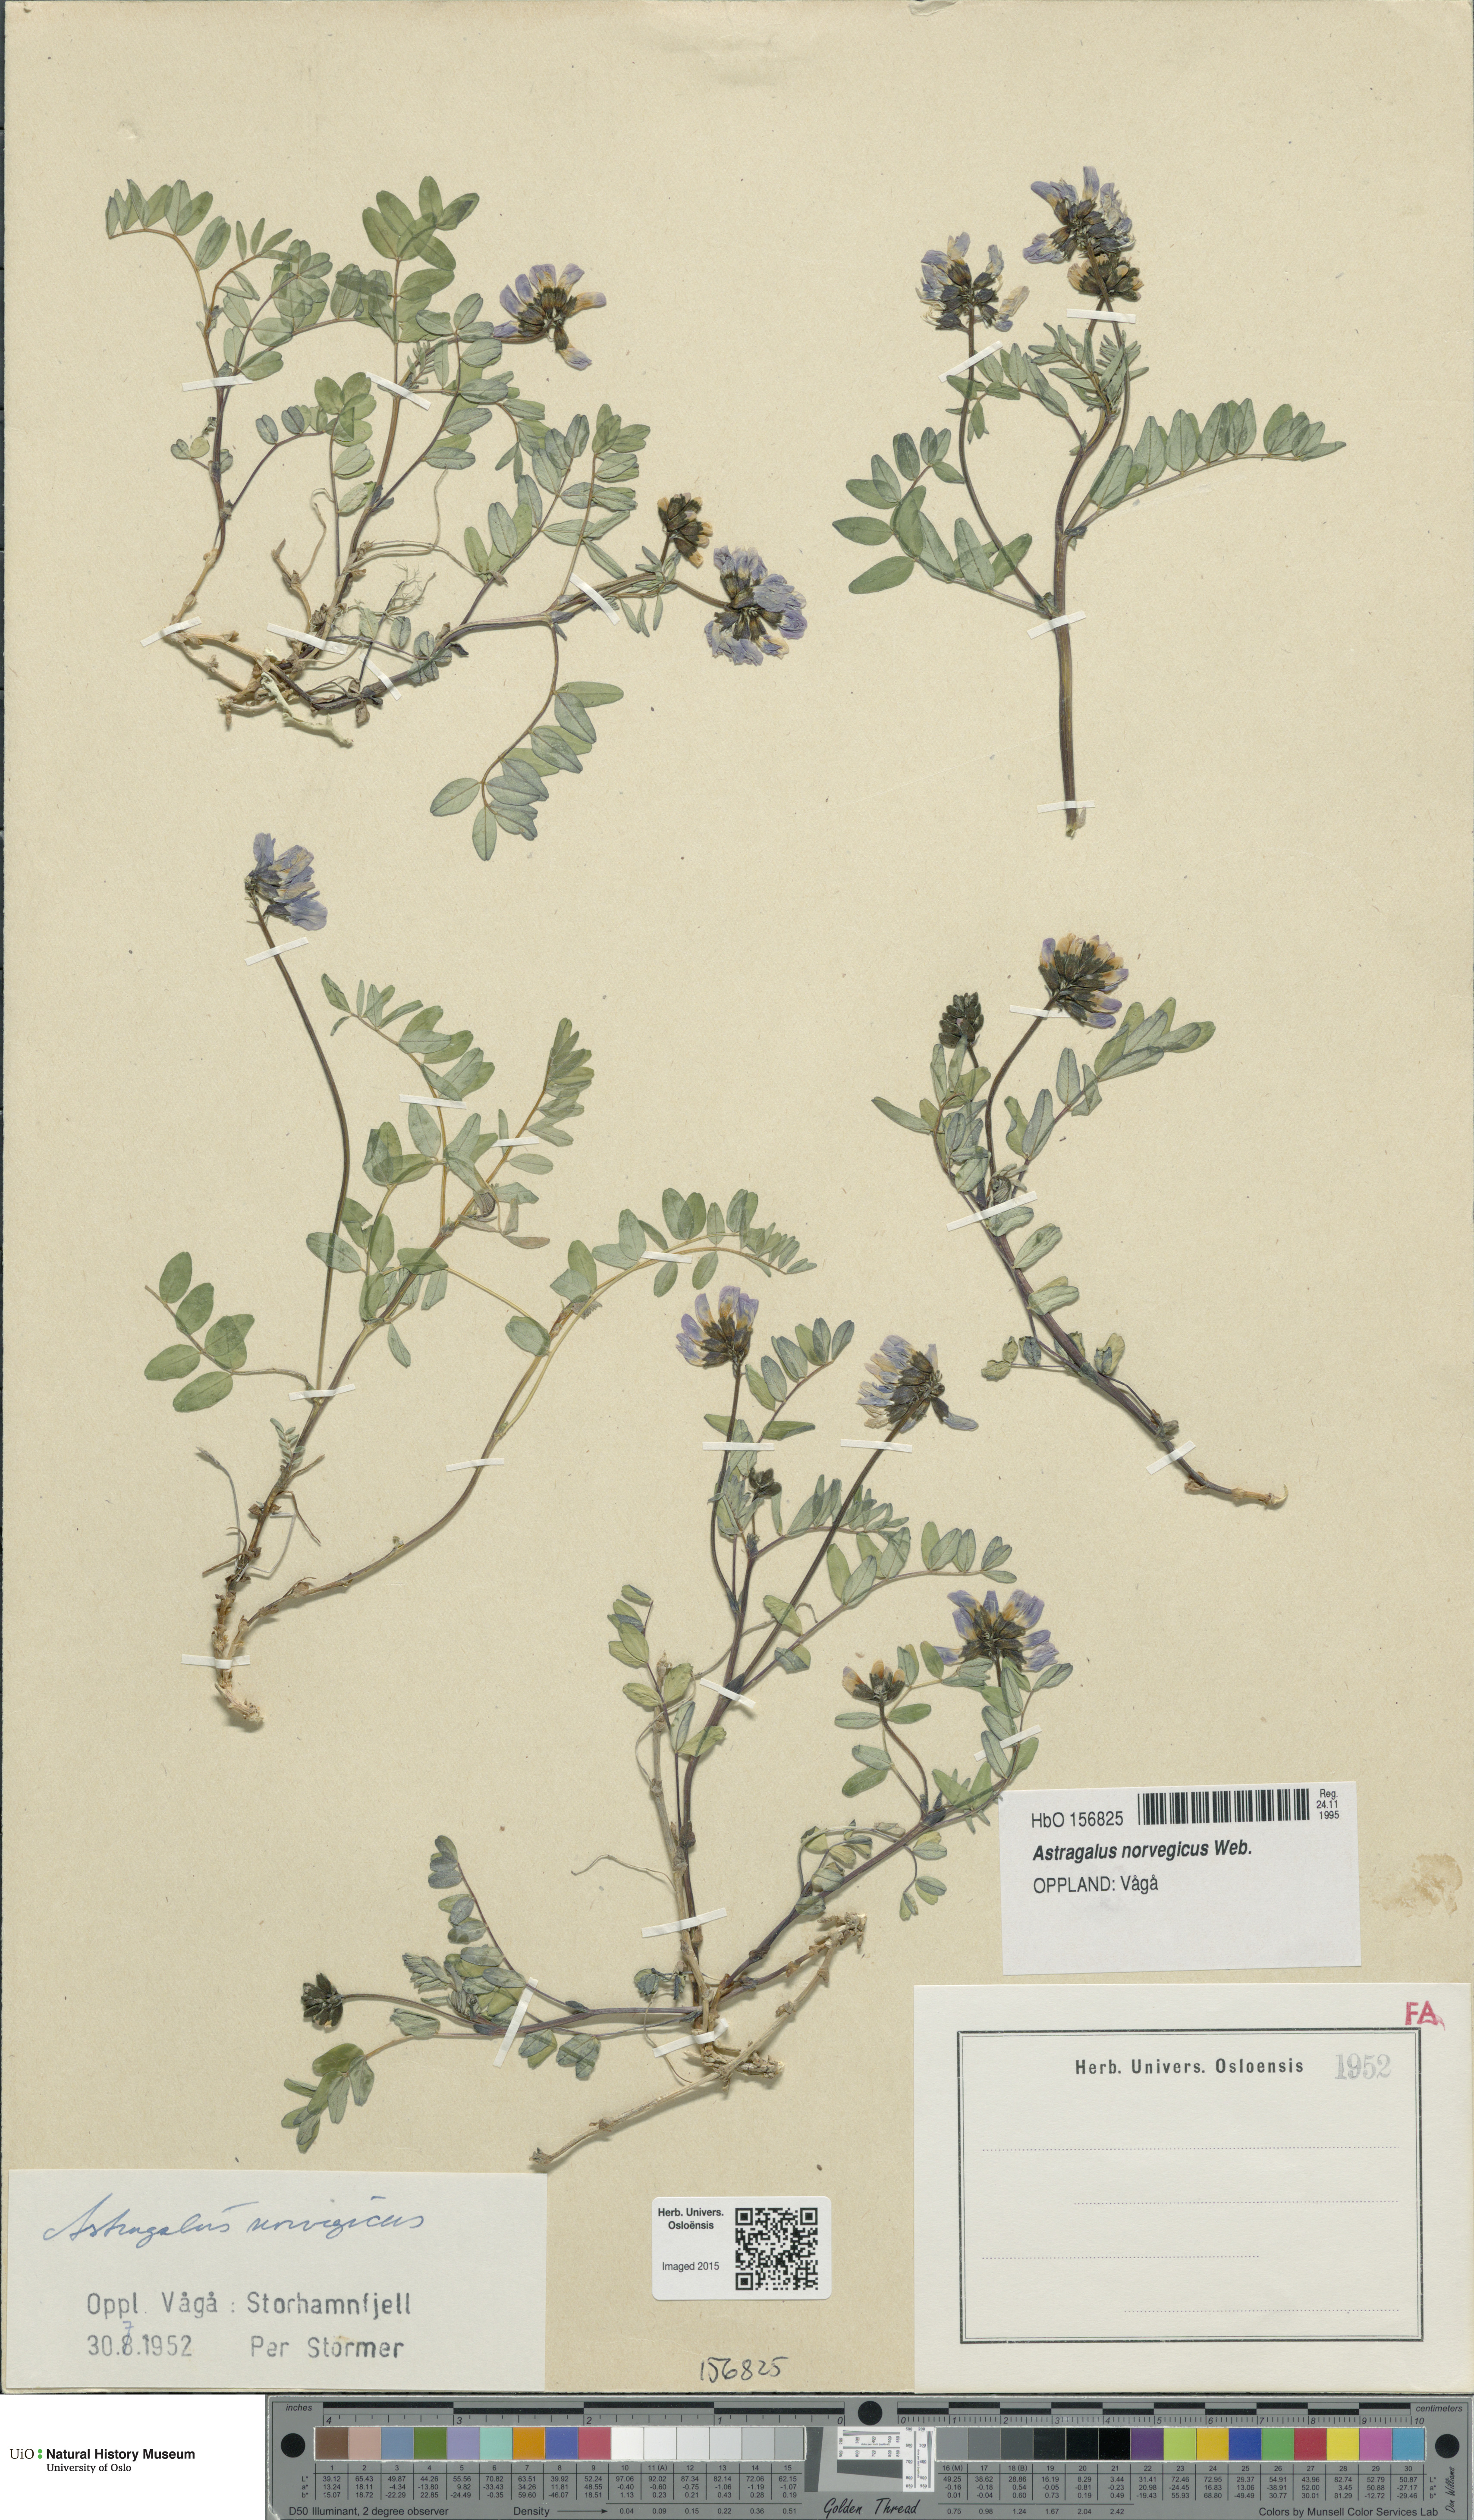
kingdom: Plantae
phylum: Tracheophyta
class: Magnoliopsida
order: Fabales
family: Fabaceae
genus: Astragalus
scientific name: Astragalus norvegicus
